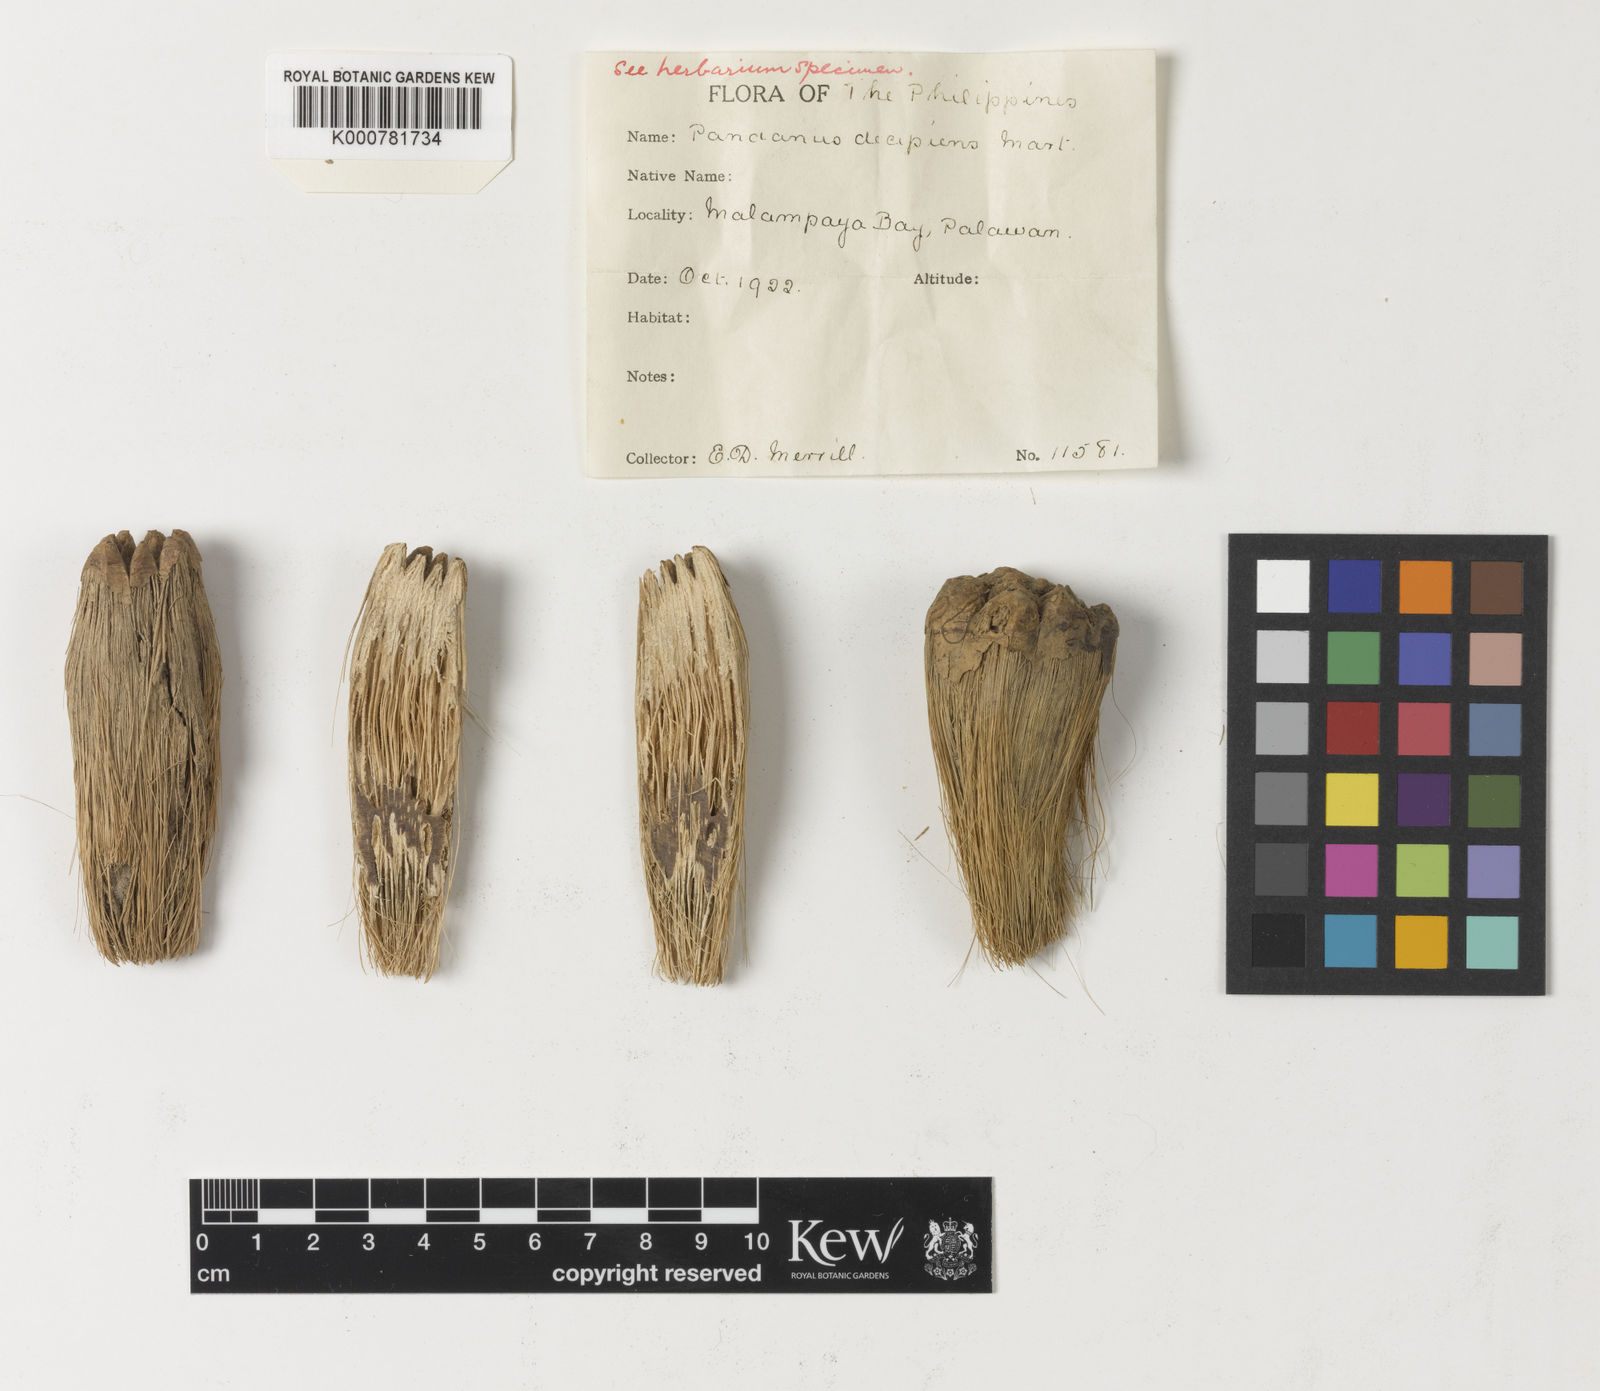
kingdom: Plantae
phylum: Tracheophyta
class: Liliopsida
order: Pandanales
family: Pandanaceae
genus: Pandanus
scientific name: Pandanus
